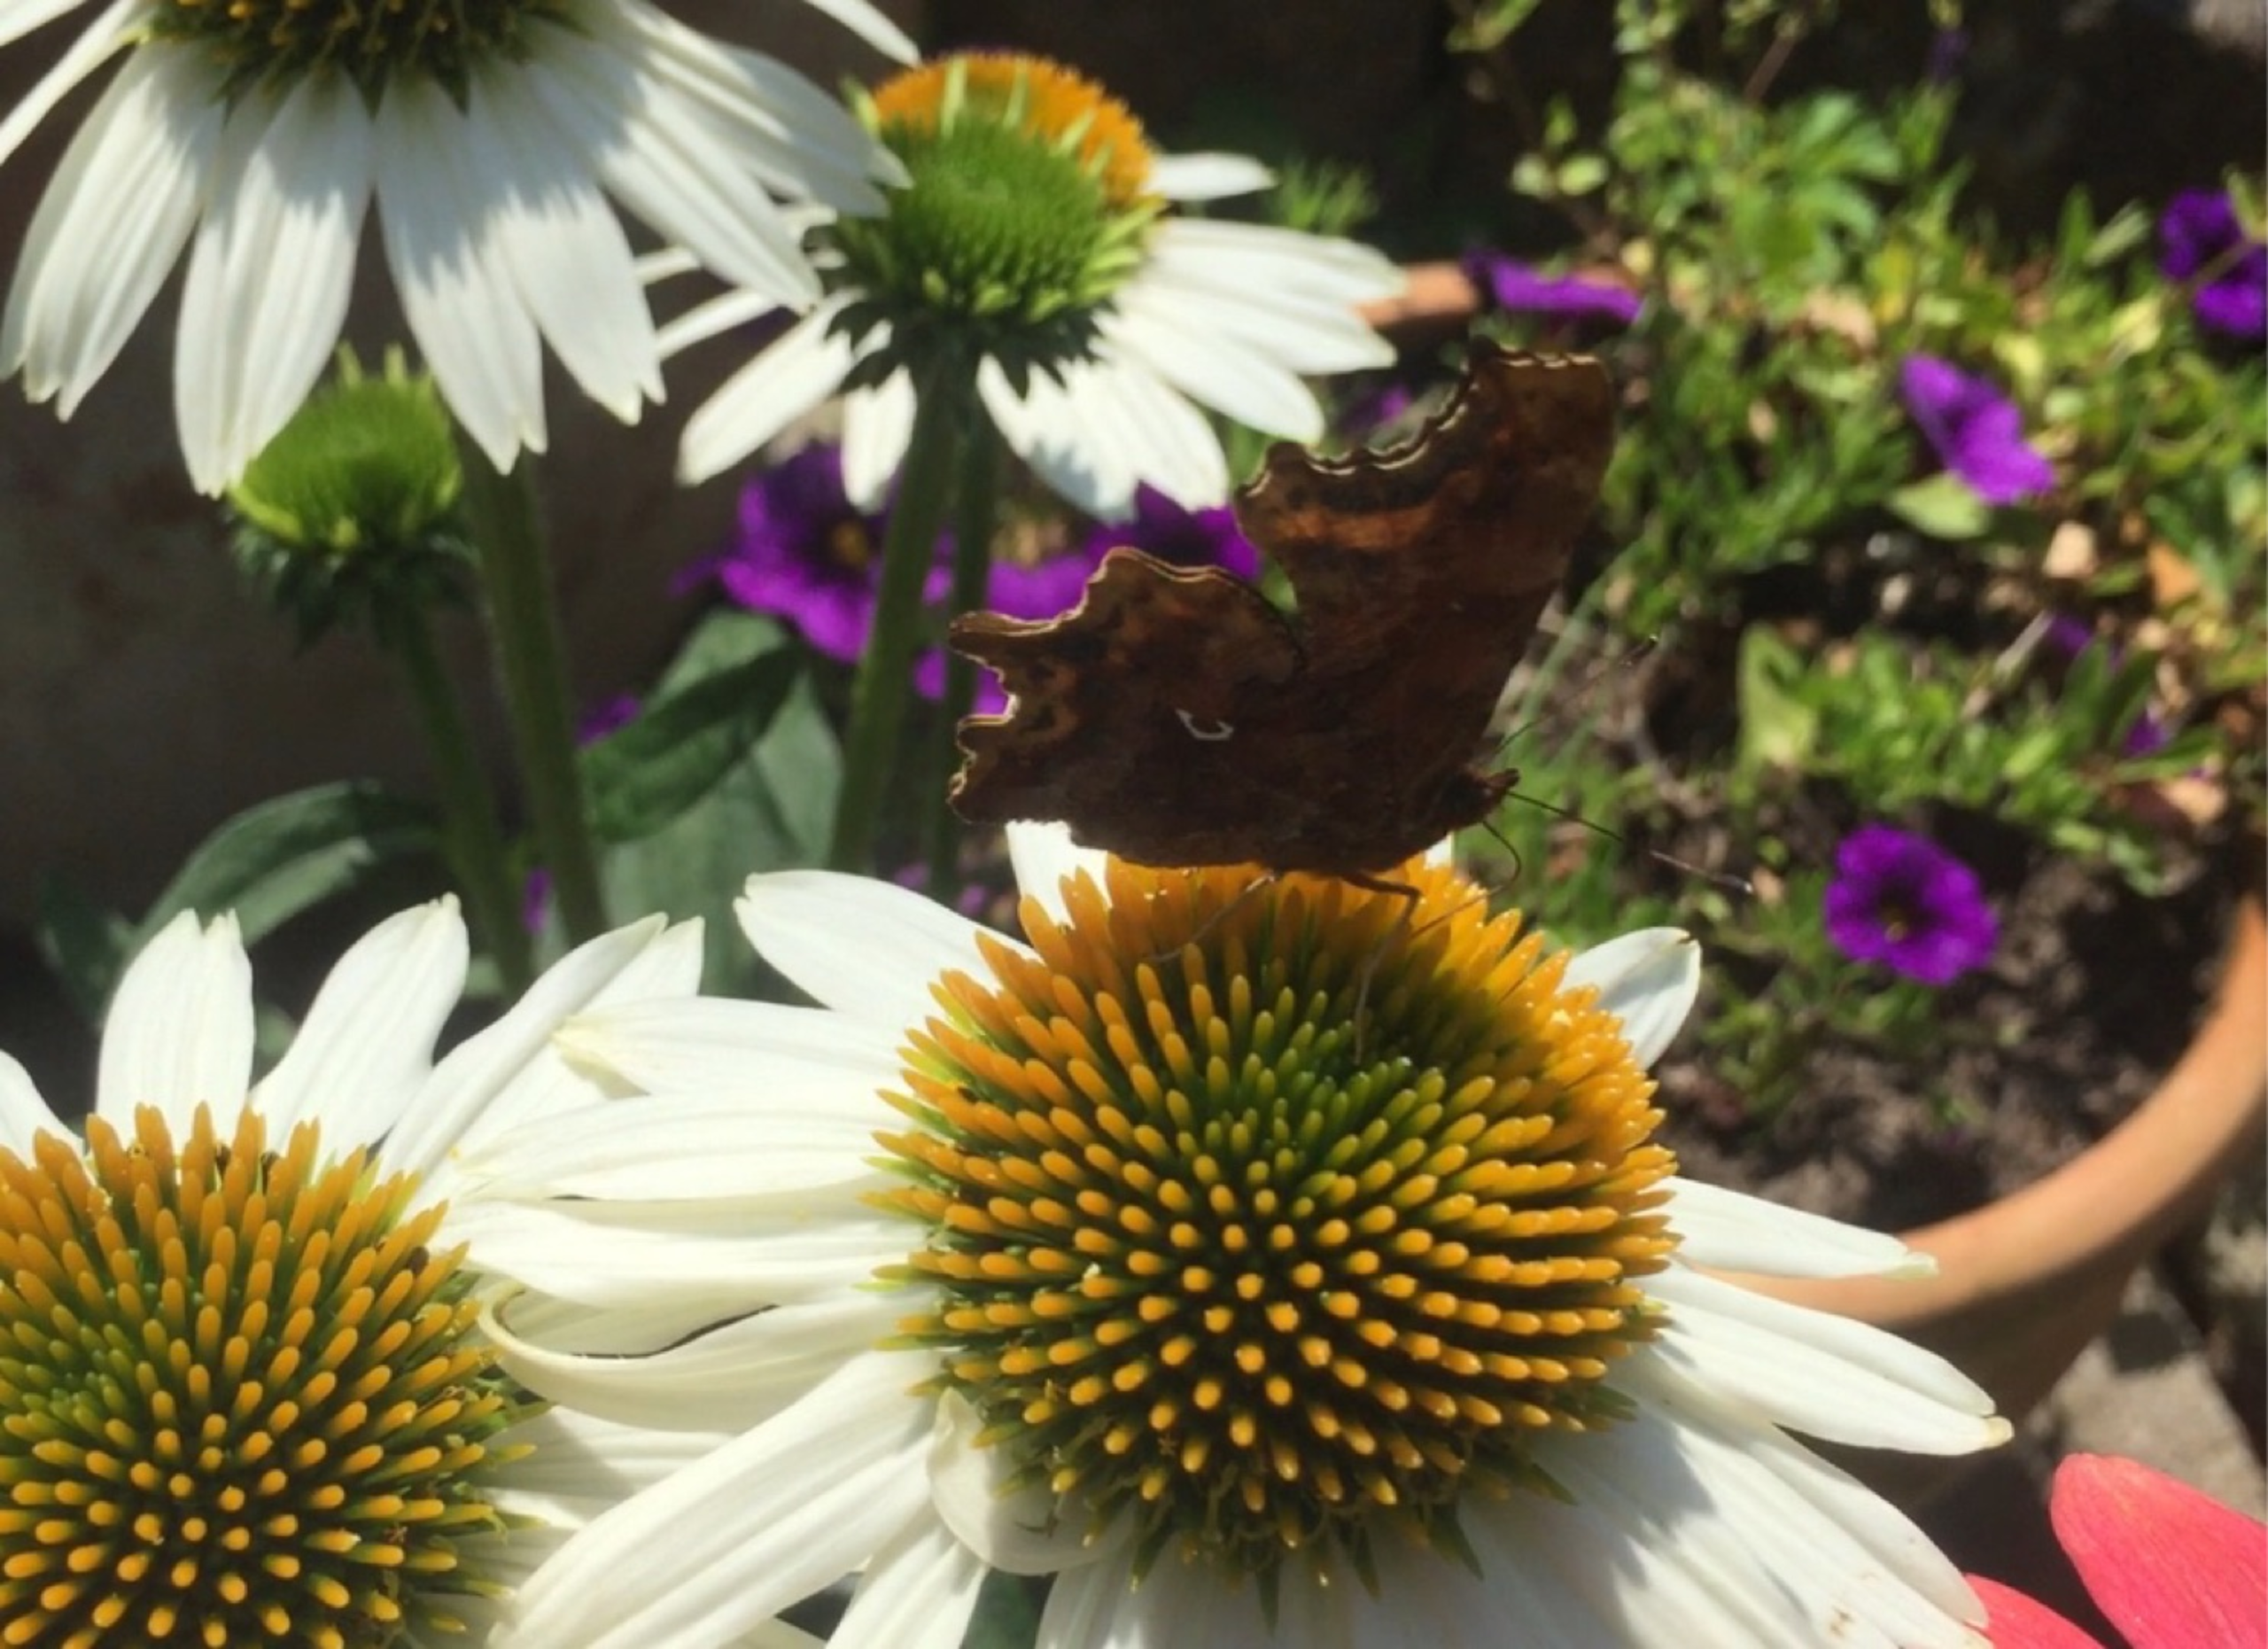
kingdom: Animalia
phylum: Arthropoda
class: Insecta
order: Lepidoptera
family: Nymphalidae
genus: Polygonia
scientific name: Polygonia c-album
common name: Det hvide C
